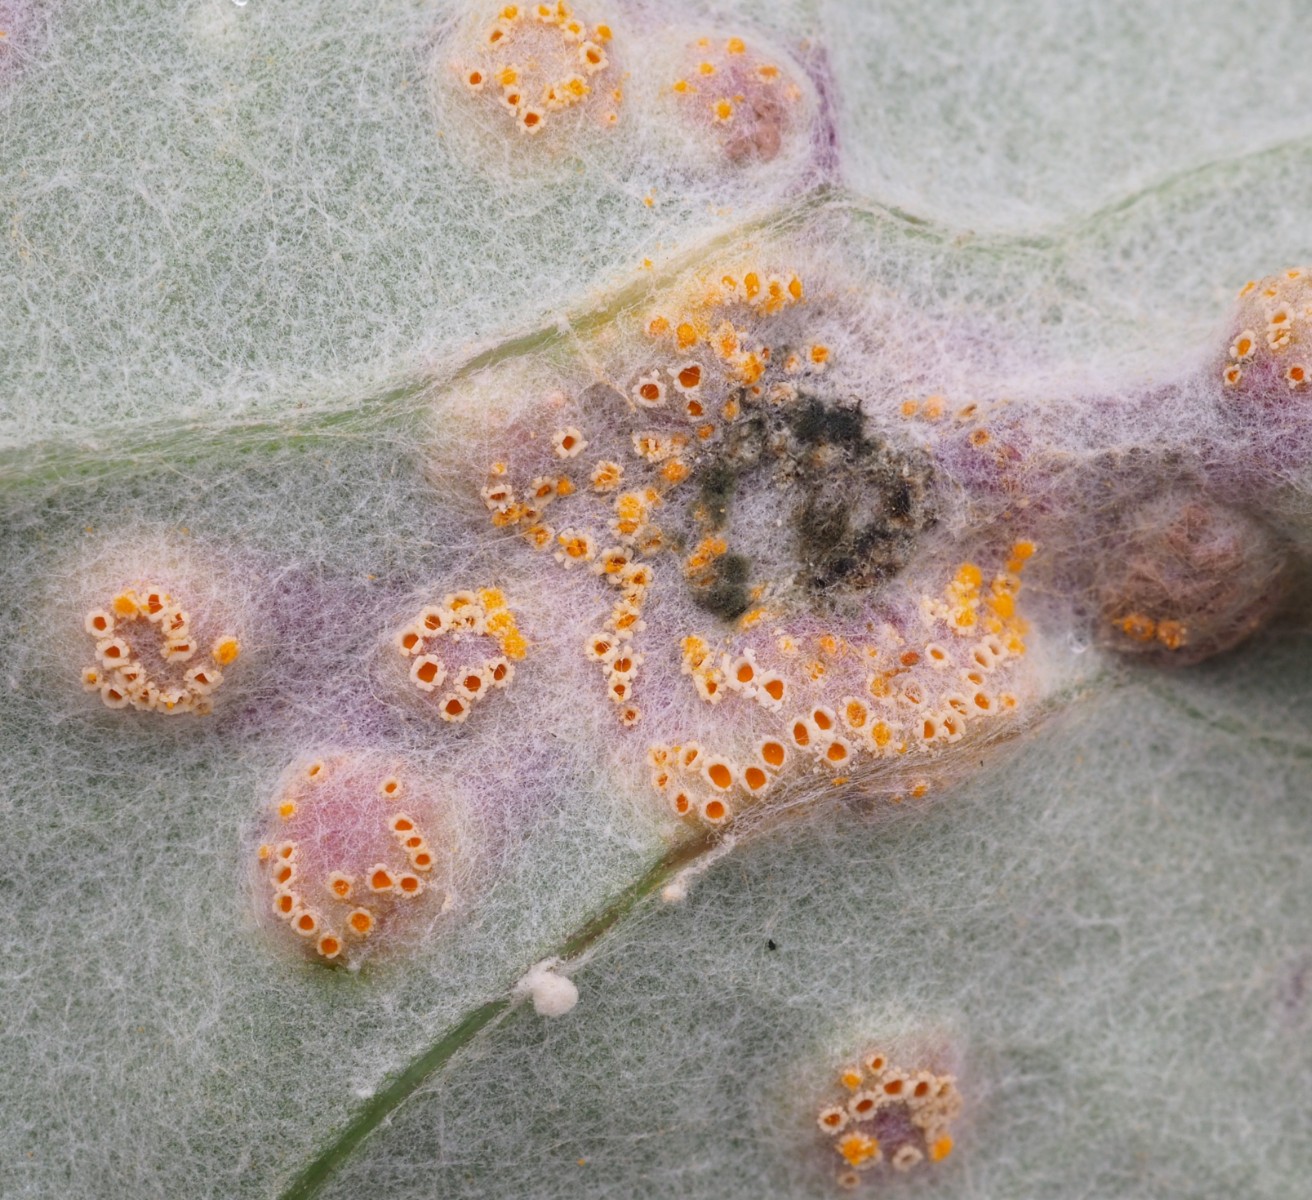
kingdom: Fungi
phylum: Basidiomycota
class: Pucciniomycetes
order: Pucciniales
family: Pucciniaceae
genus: Puccinia
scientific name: Puccinia poarum
